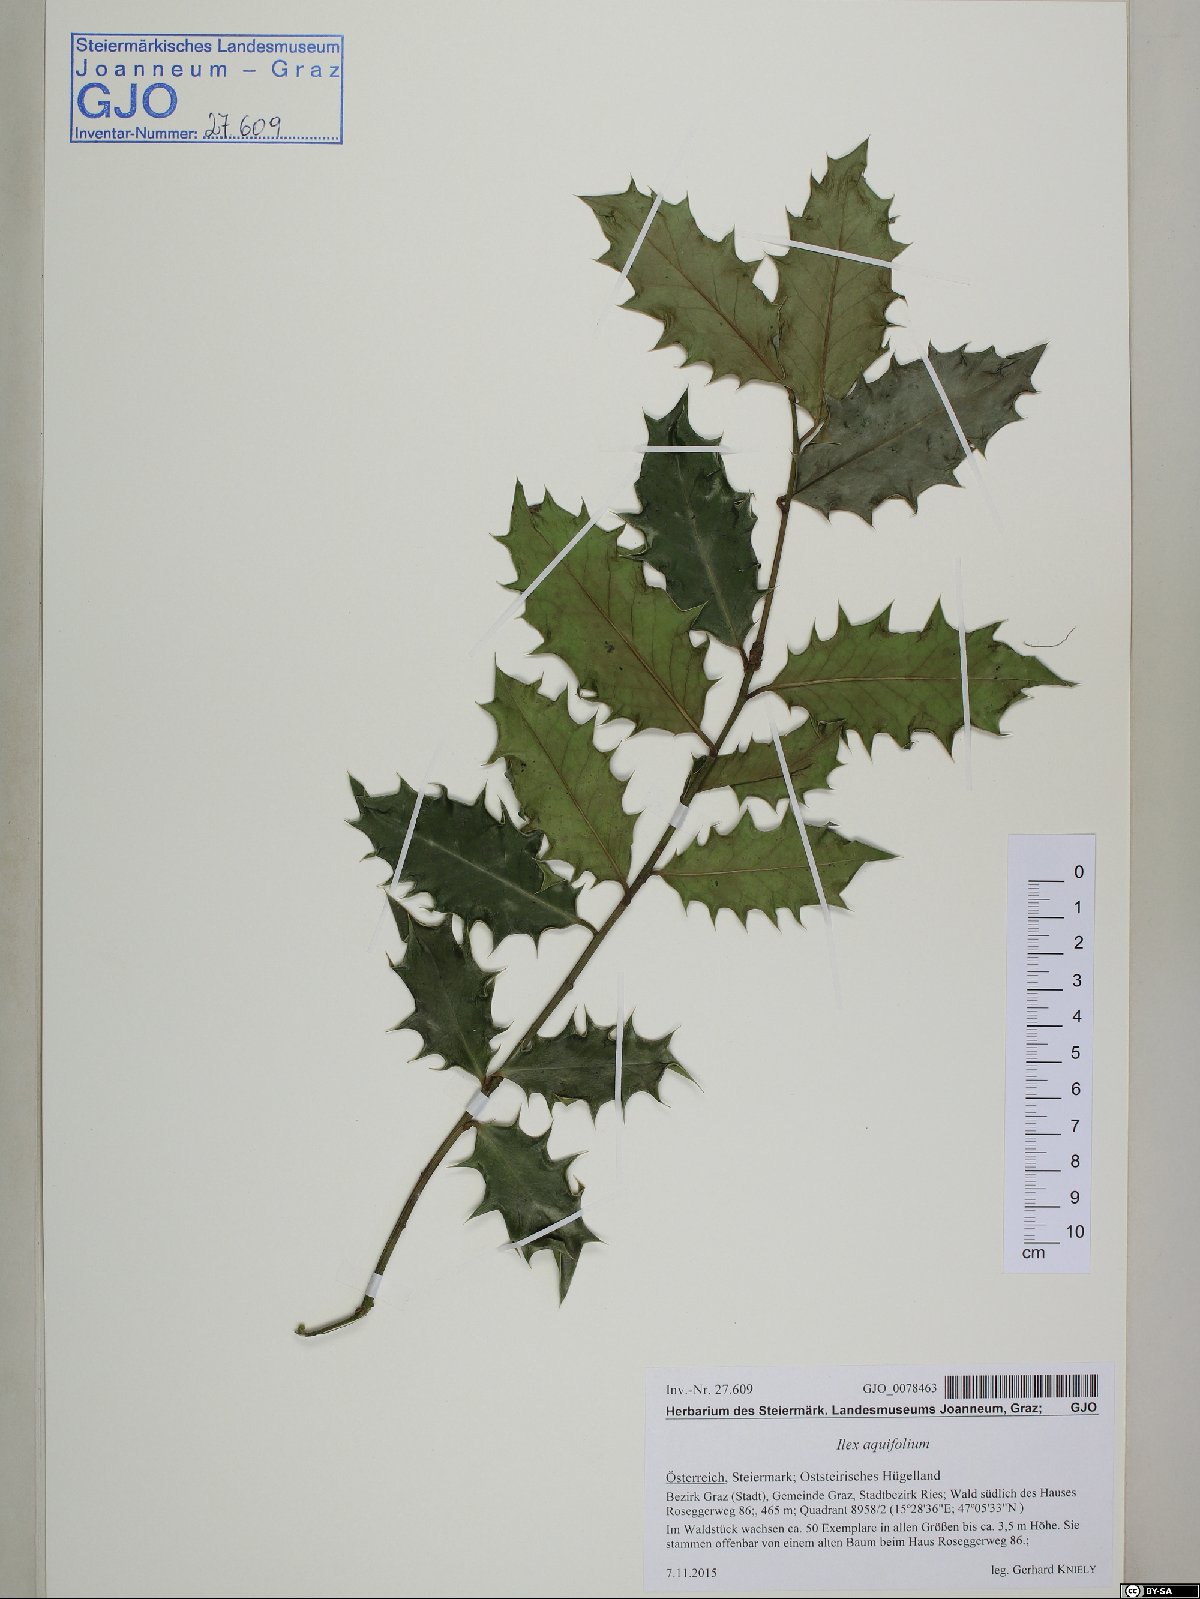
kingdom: Plantae
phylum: Tracheophyta
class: Magnoliopsida
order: Aquifoliales
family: Aquifoliaceae
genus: Ilex
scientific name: Ilex aquifolium
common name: English holly
